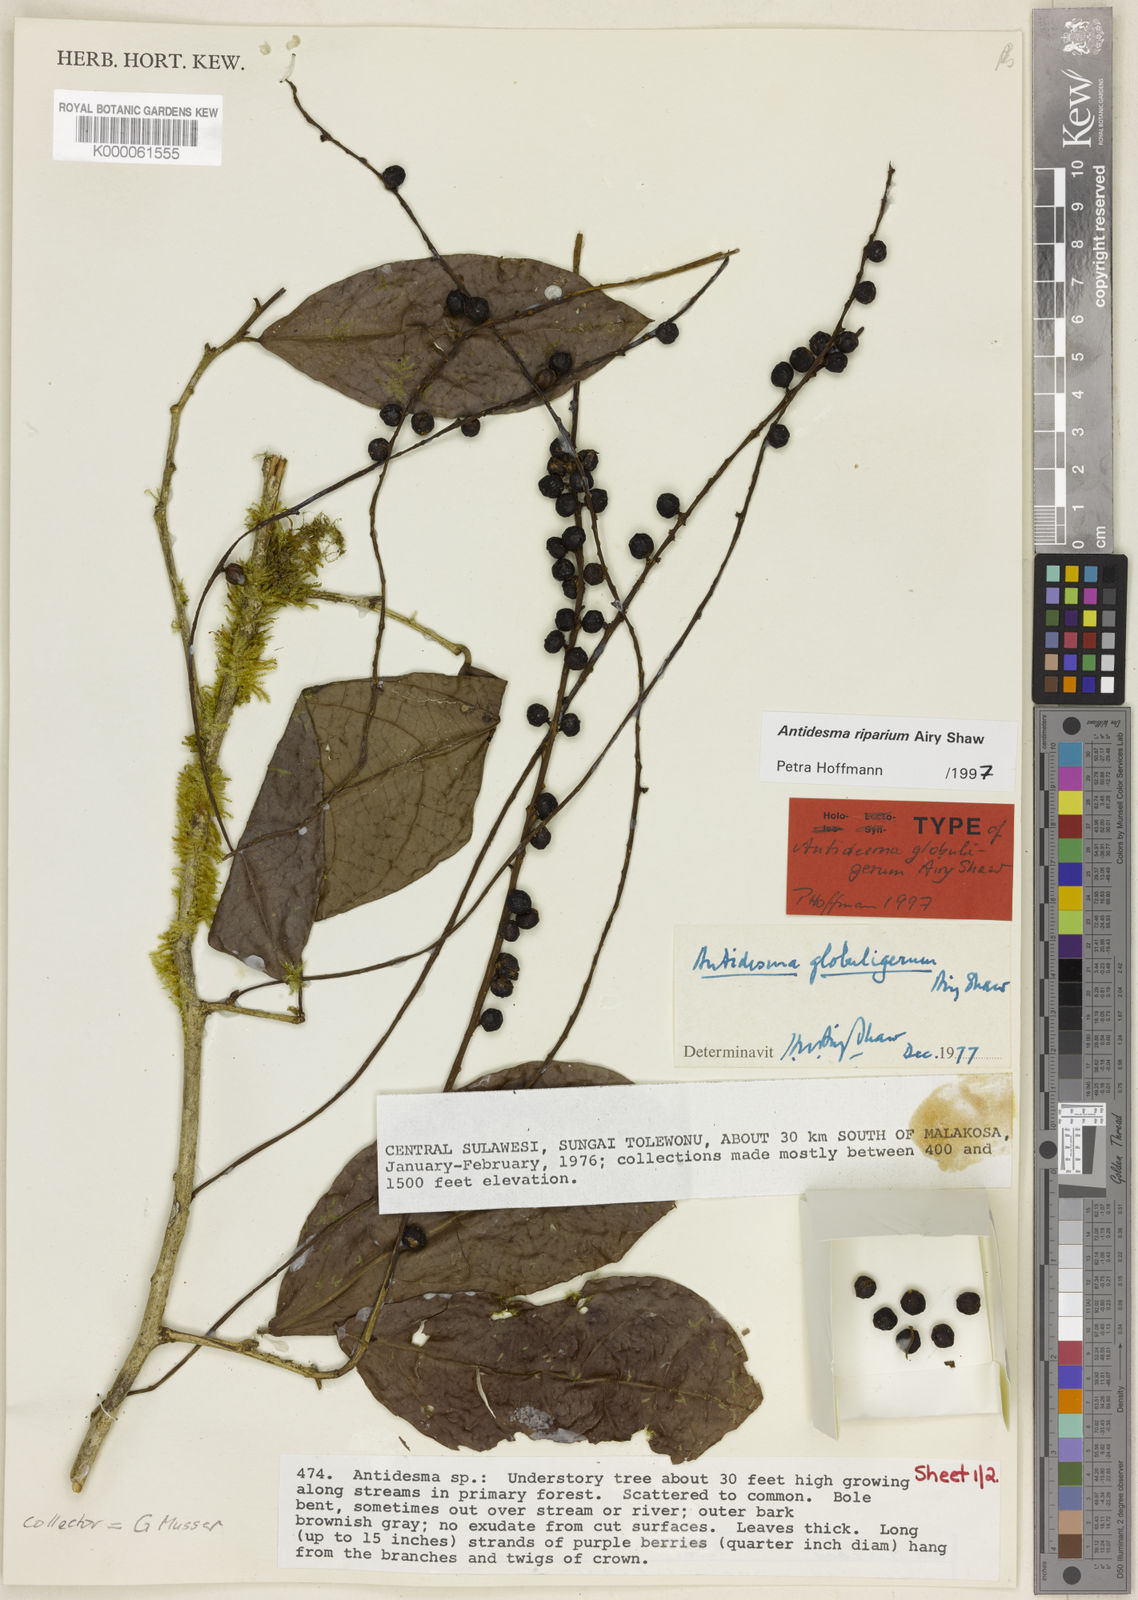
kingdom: Plantae
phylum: Tracheophyta
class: Magnoliopsida
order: Malpighiales
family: Phyllanthaceae
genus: Antidesma
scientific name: Antidesma riparium
